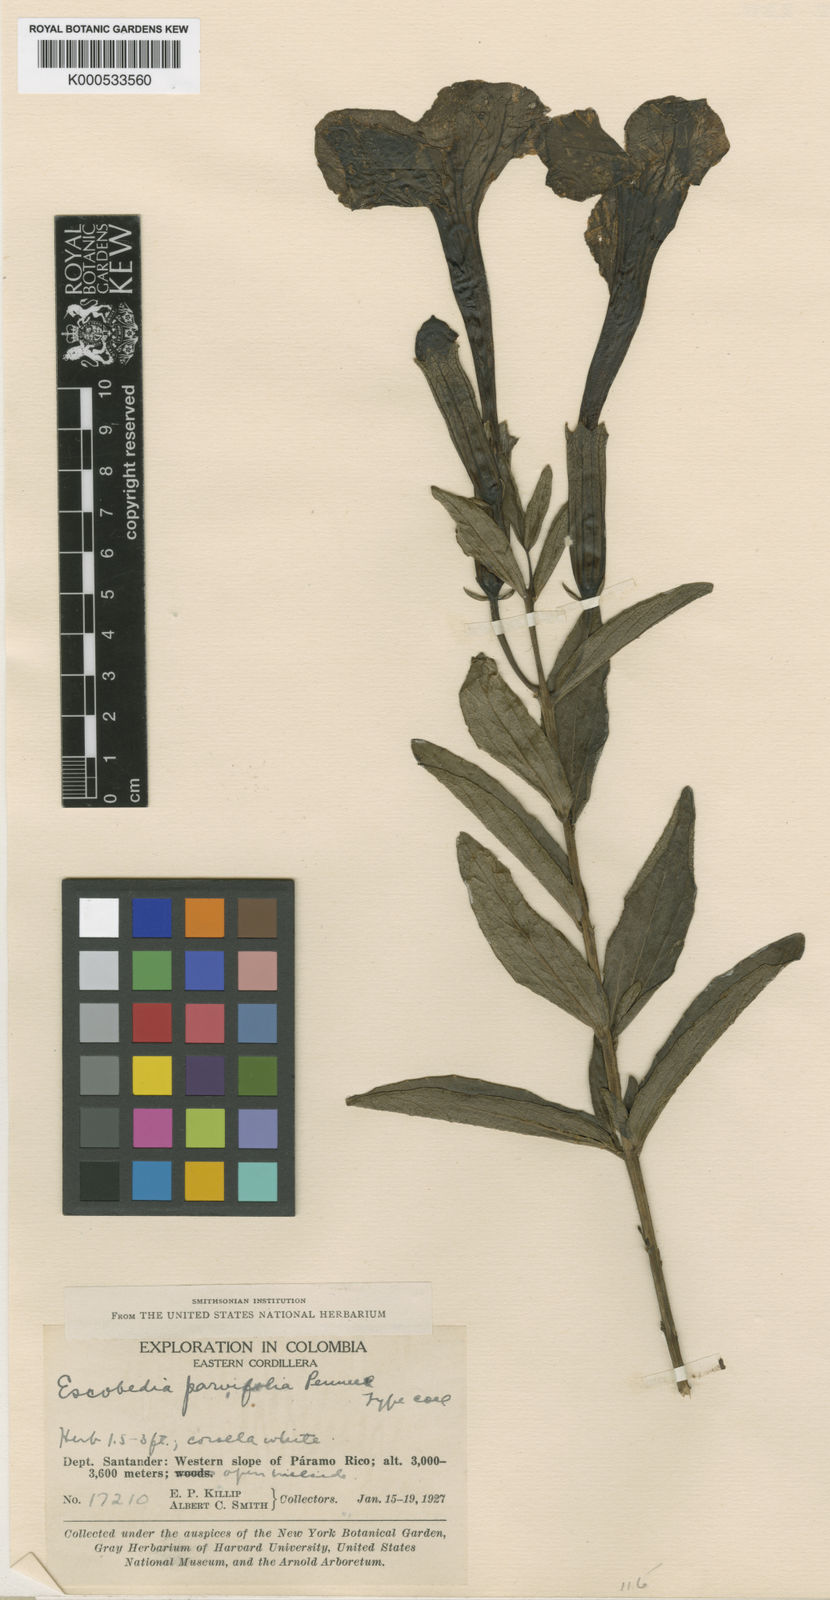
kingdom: Plantae
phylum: Tracheophyta
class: Magnoliopsida
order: Lamiales
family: Orobanchaceae
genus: Escobedia
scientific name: Escobedia grandiflora
